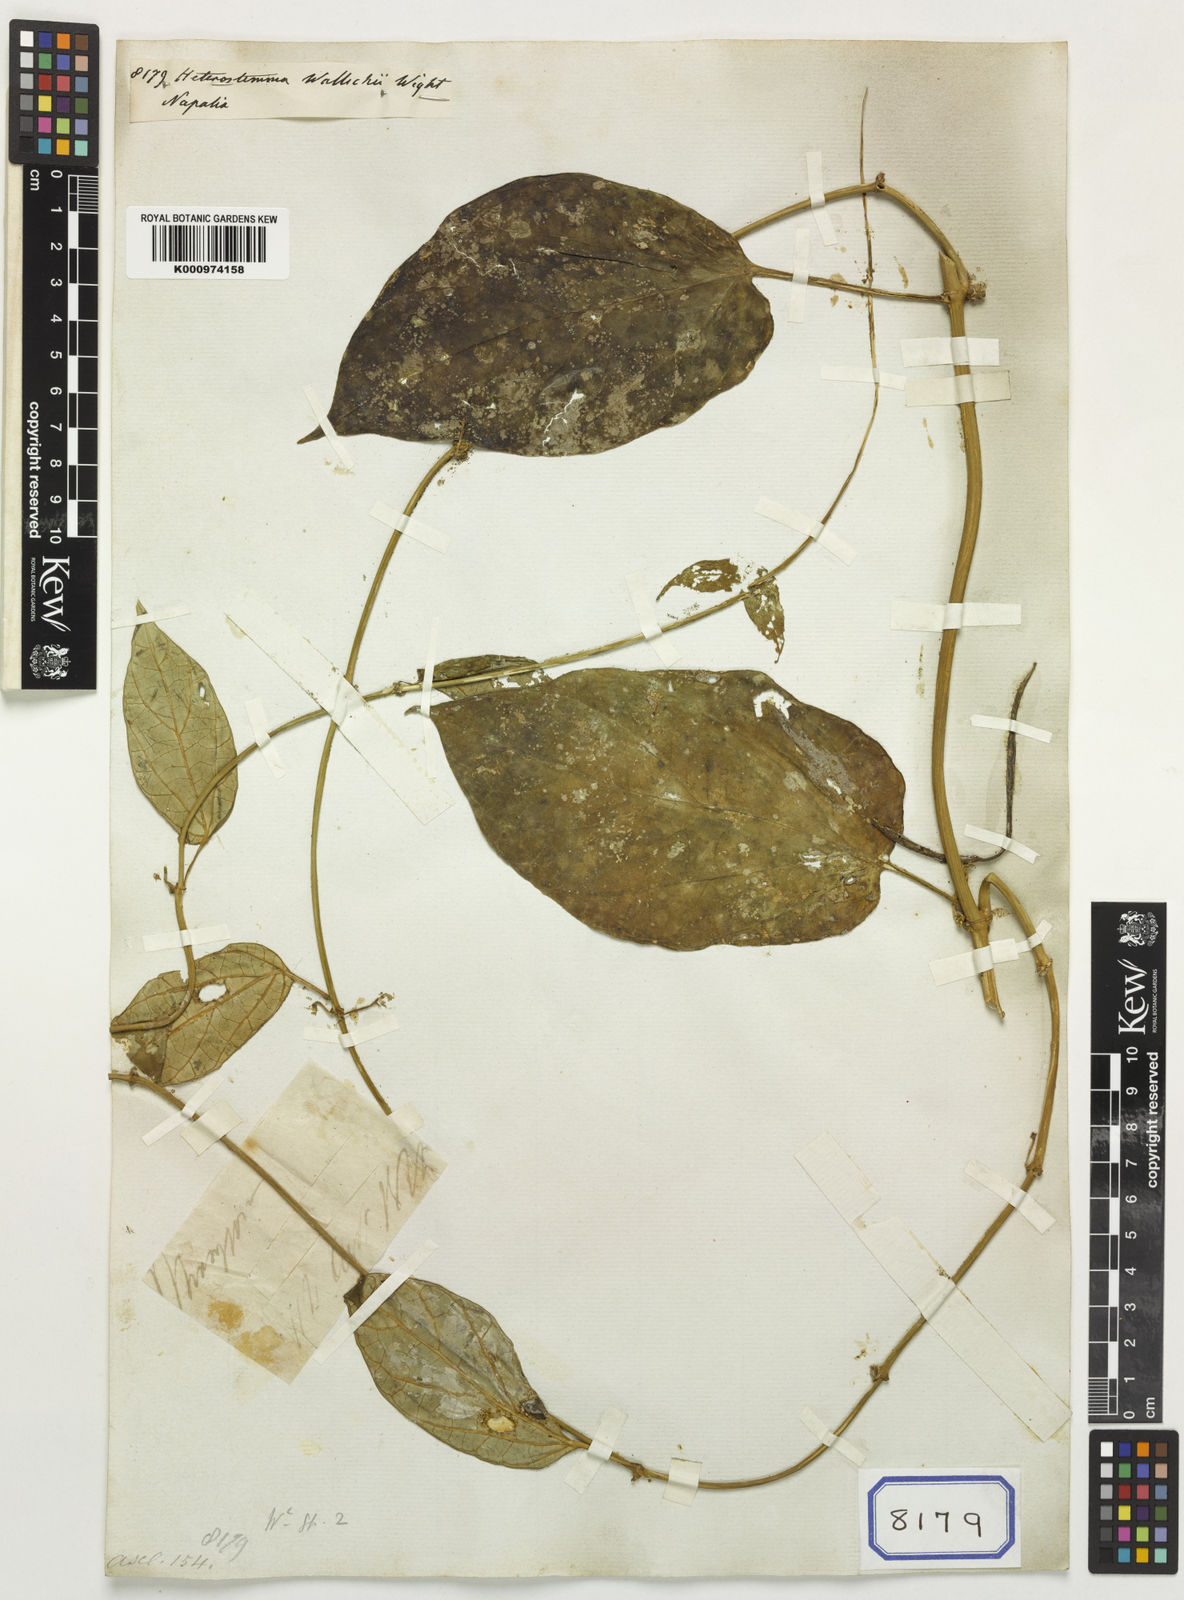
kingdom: Plantae
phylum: Tracheophyta
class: Magnoliopsida
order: Gentianales
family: Apocynaceae
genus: Heterostemma
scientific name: Heterostemma wallichii
